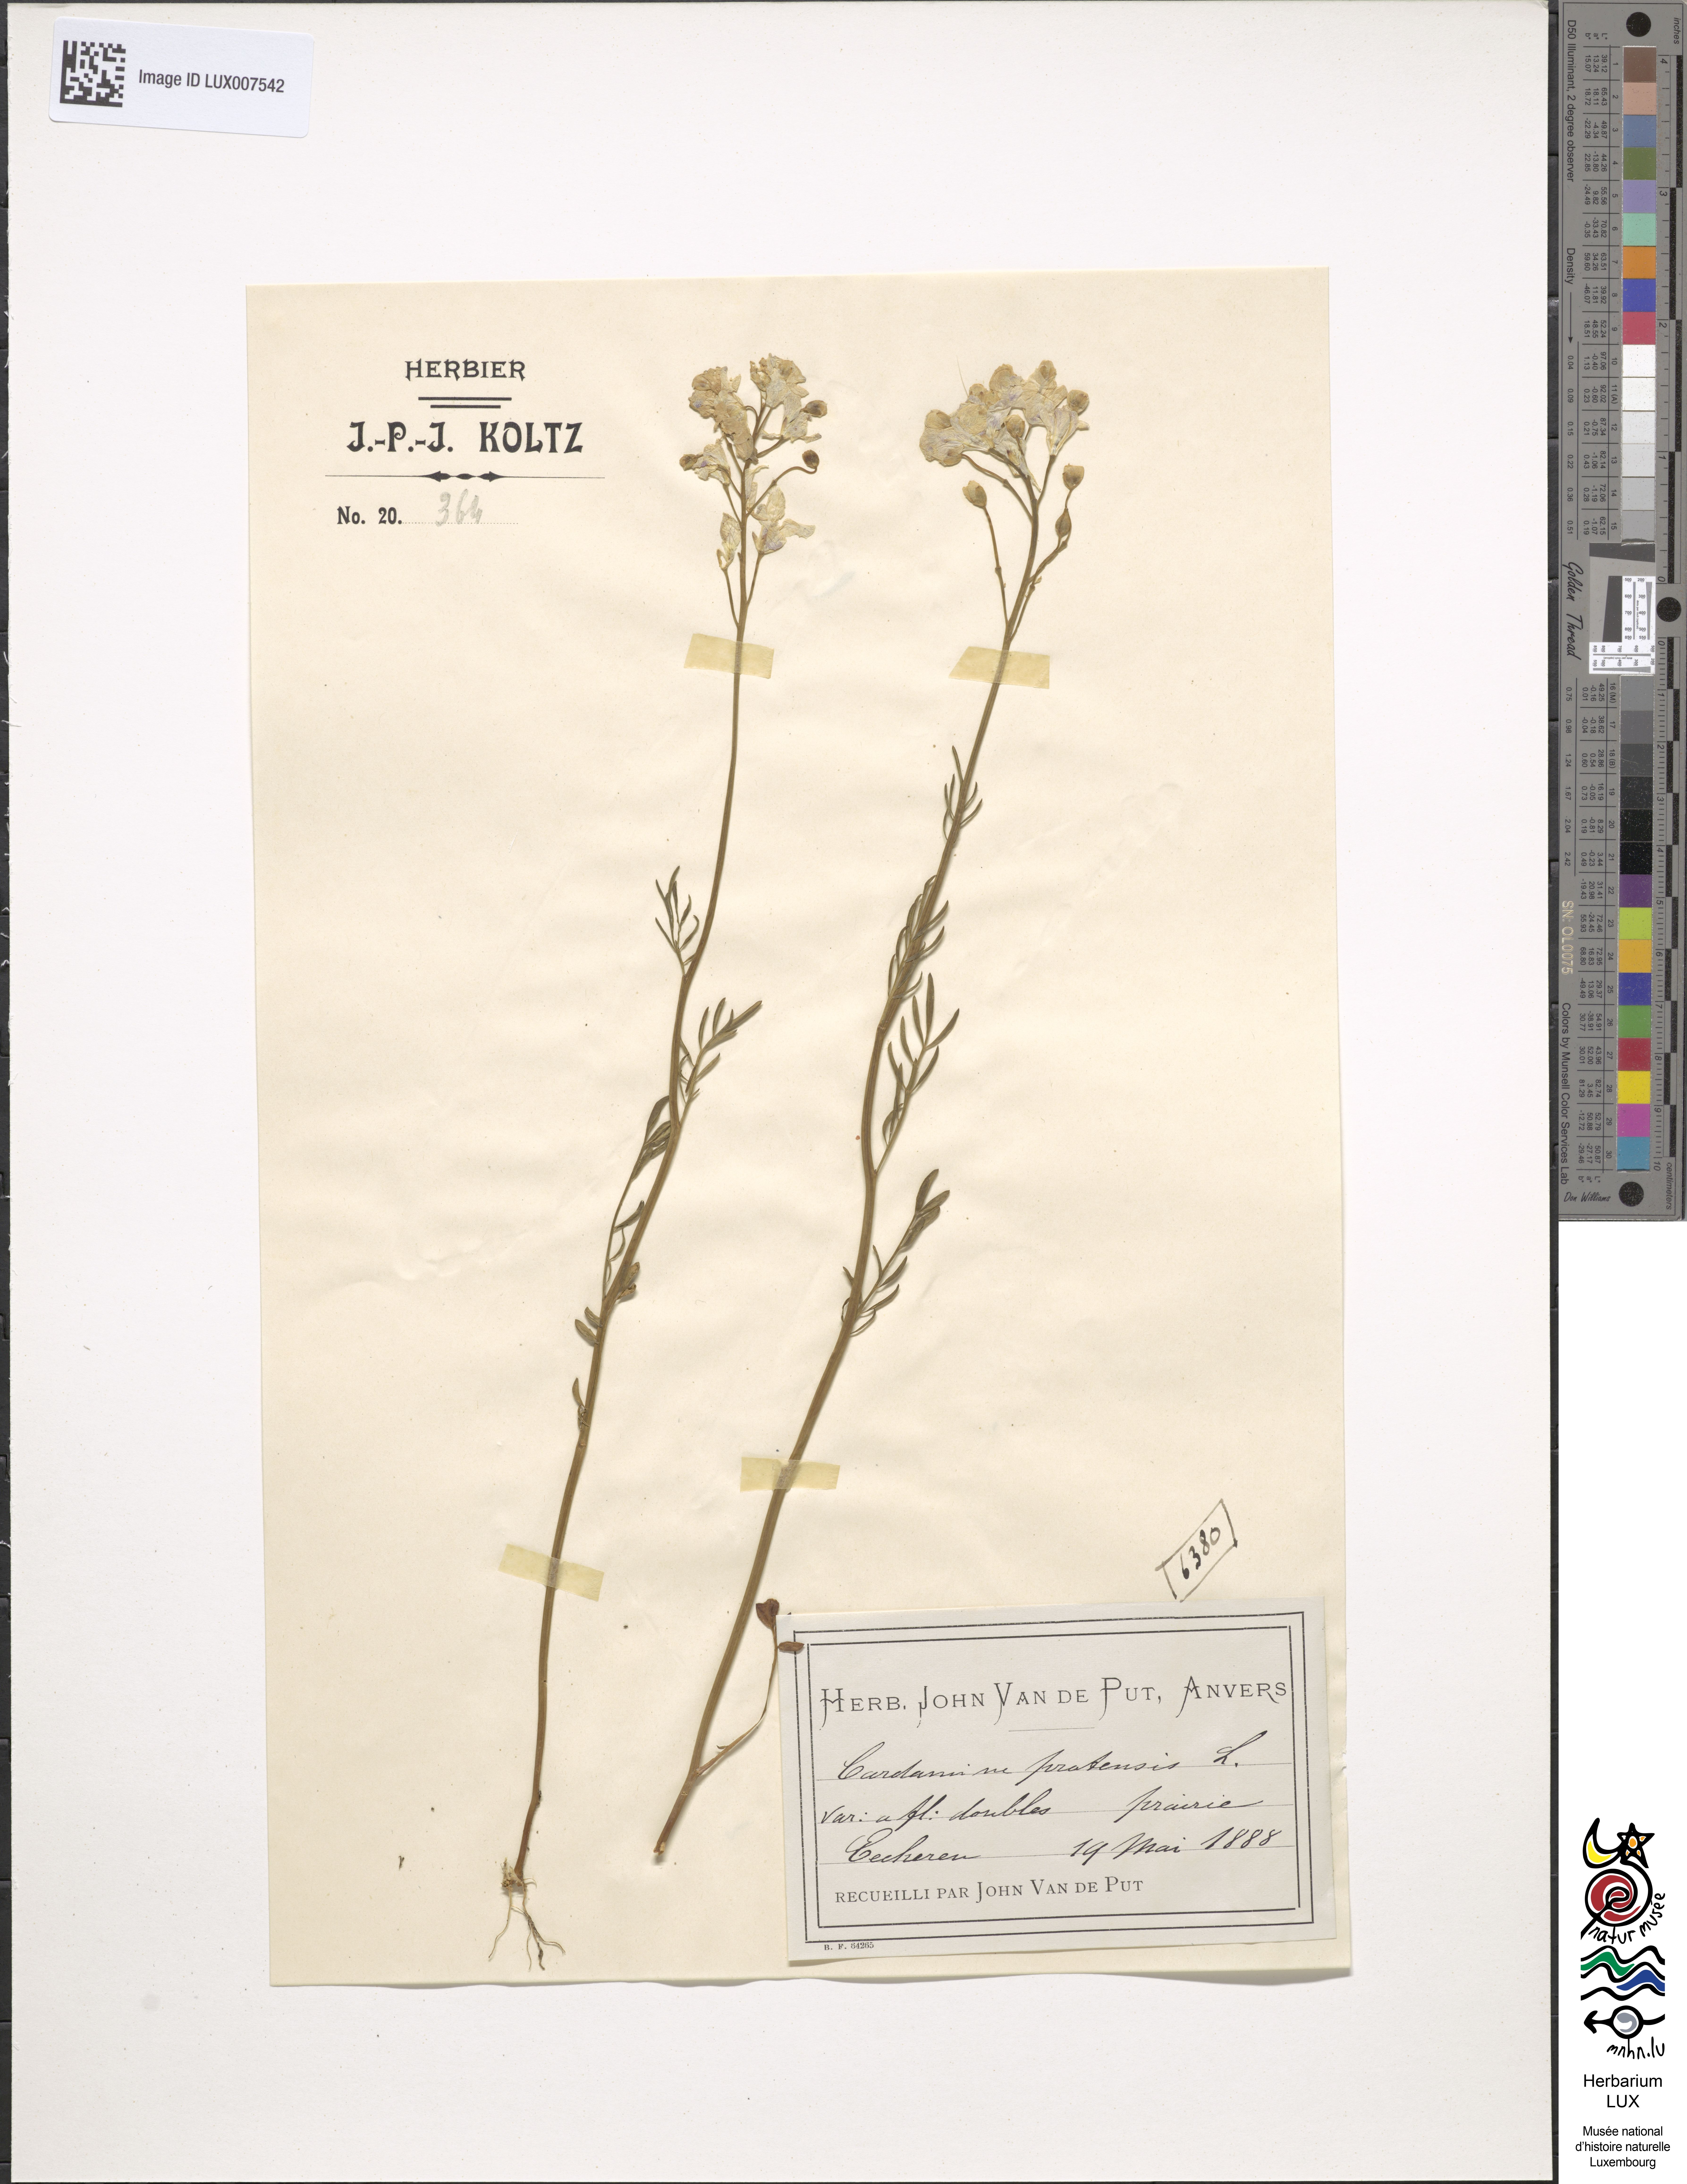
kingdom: Plantae
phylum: Tracheophyta
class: Magnoliopsida
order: Brassicales
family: Brassicaceae
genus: Cardamine
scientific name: Cardamine pratensis
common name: Cuckoo flower
